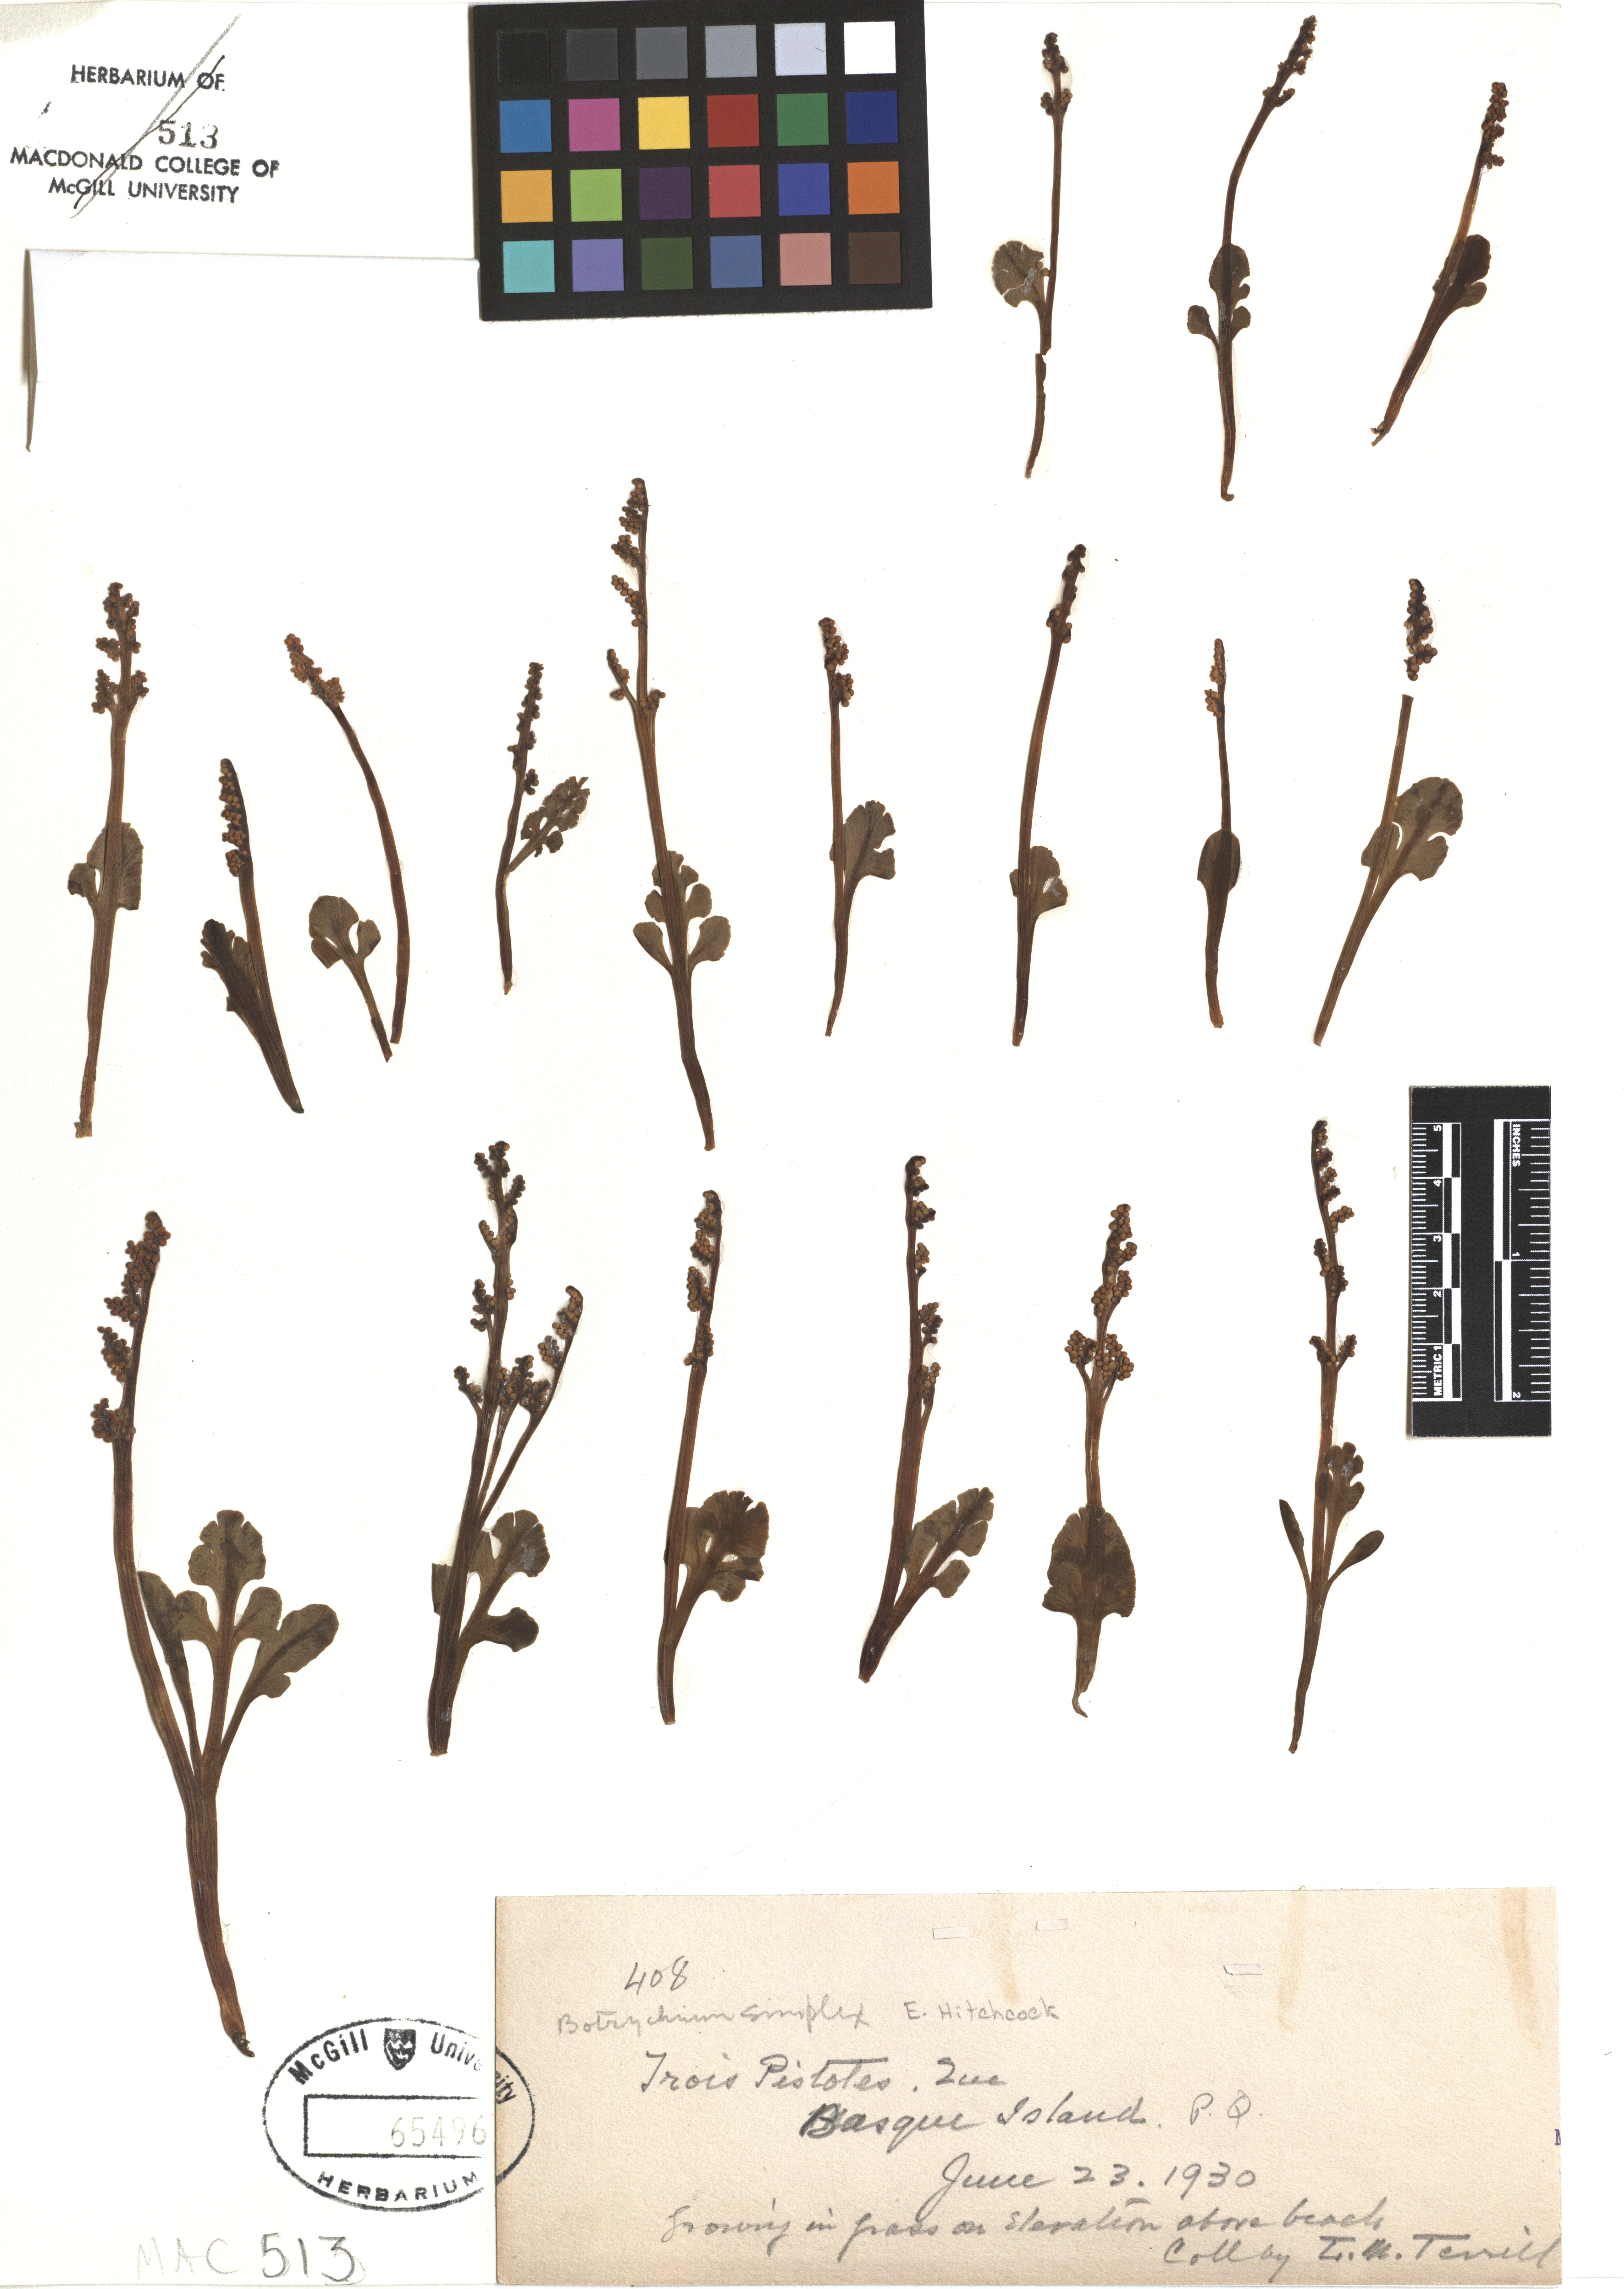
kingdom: Plantae
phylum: Tracheophyta
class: Polypodiopsida
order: Ophioglossales
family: Ophioglossaceae
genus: Botrychium
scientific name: Botrychium simplex
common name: Least moonwort
